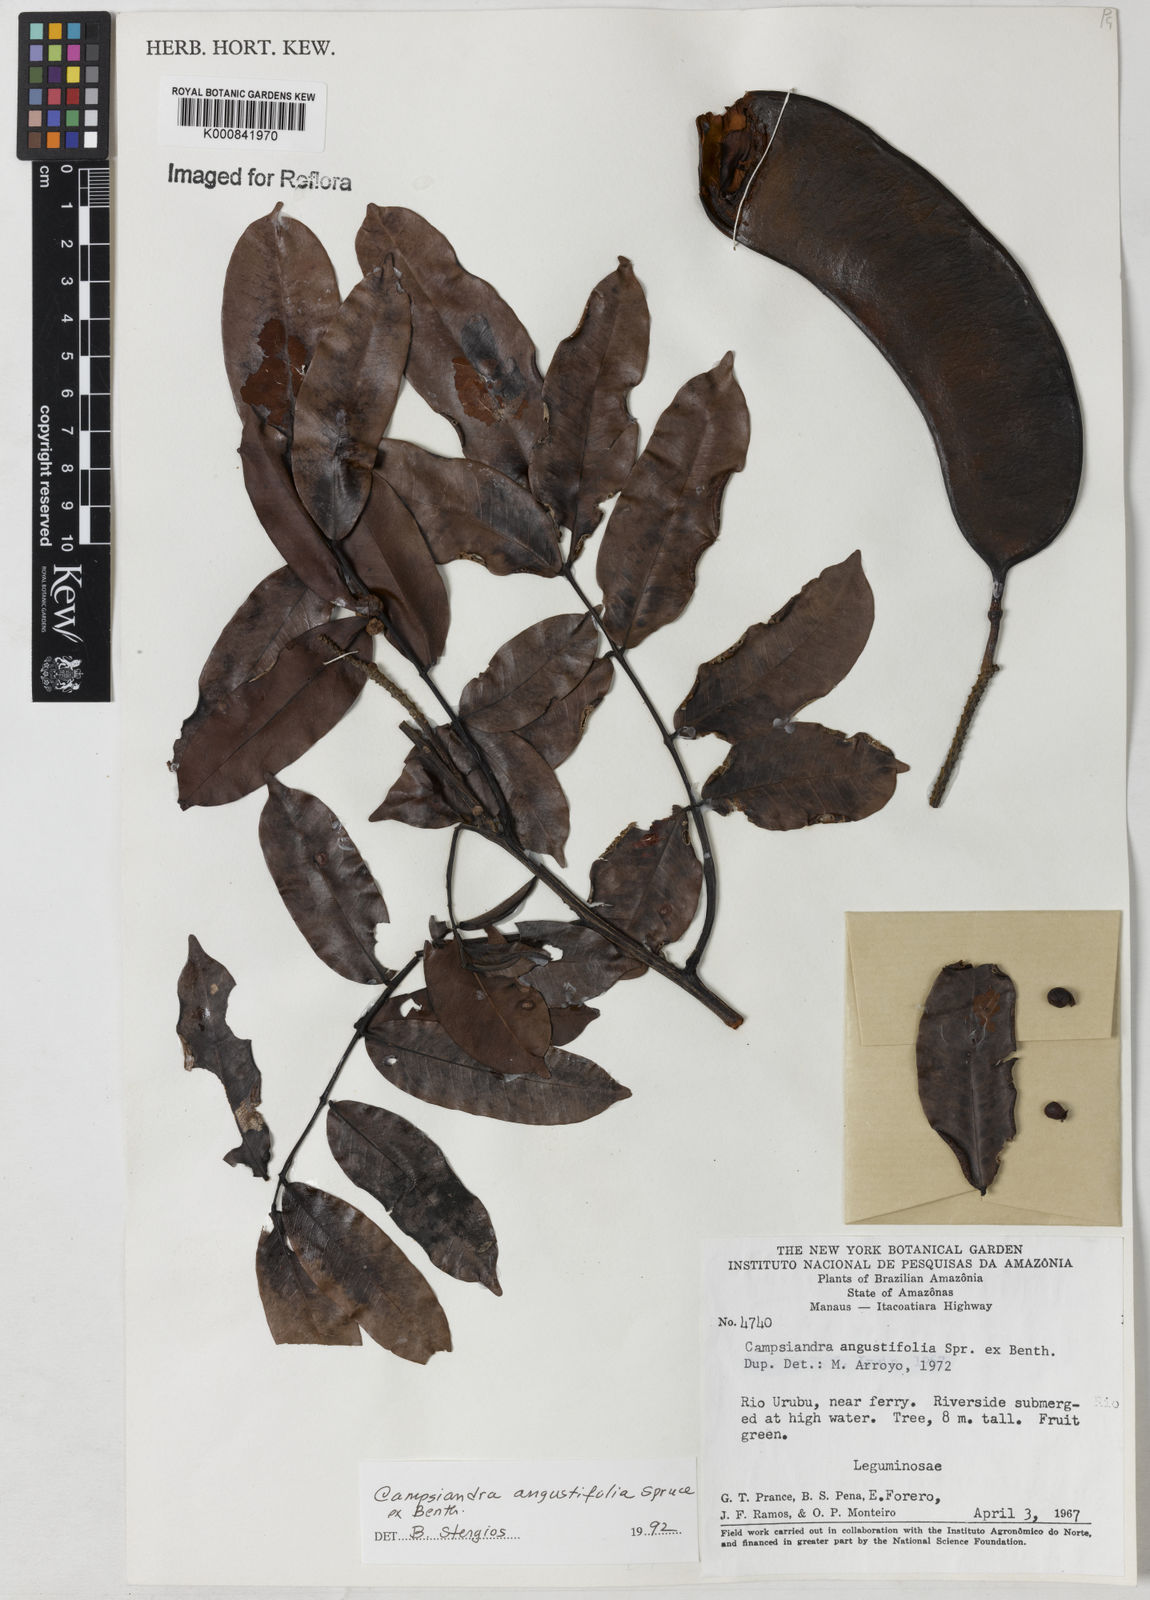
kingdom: Plantae
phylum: Tracheophyta
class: Magnoliopsida
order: Fabales
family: Fabaceae
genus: Campsiandra
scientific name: Campsiandra
